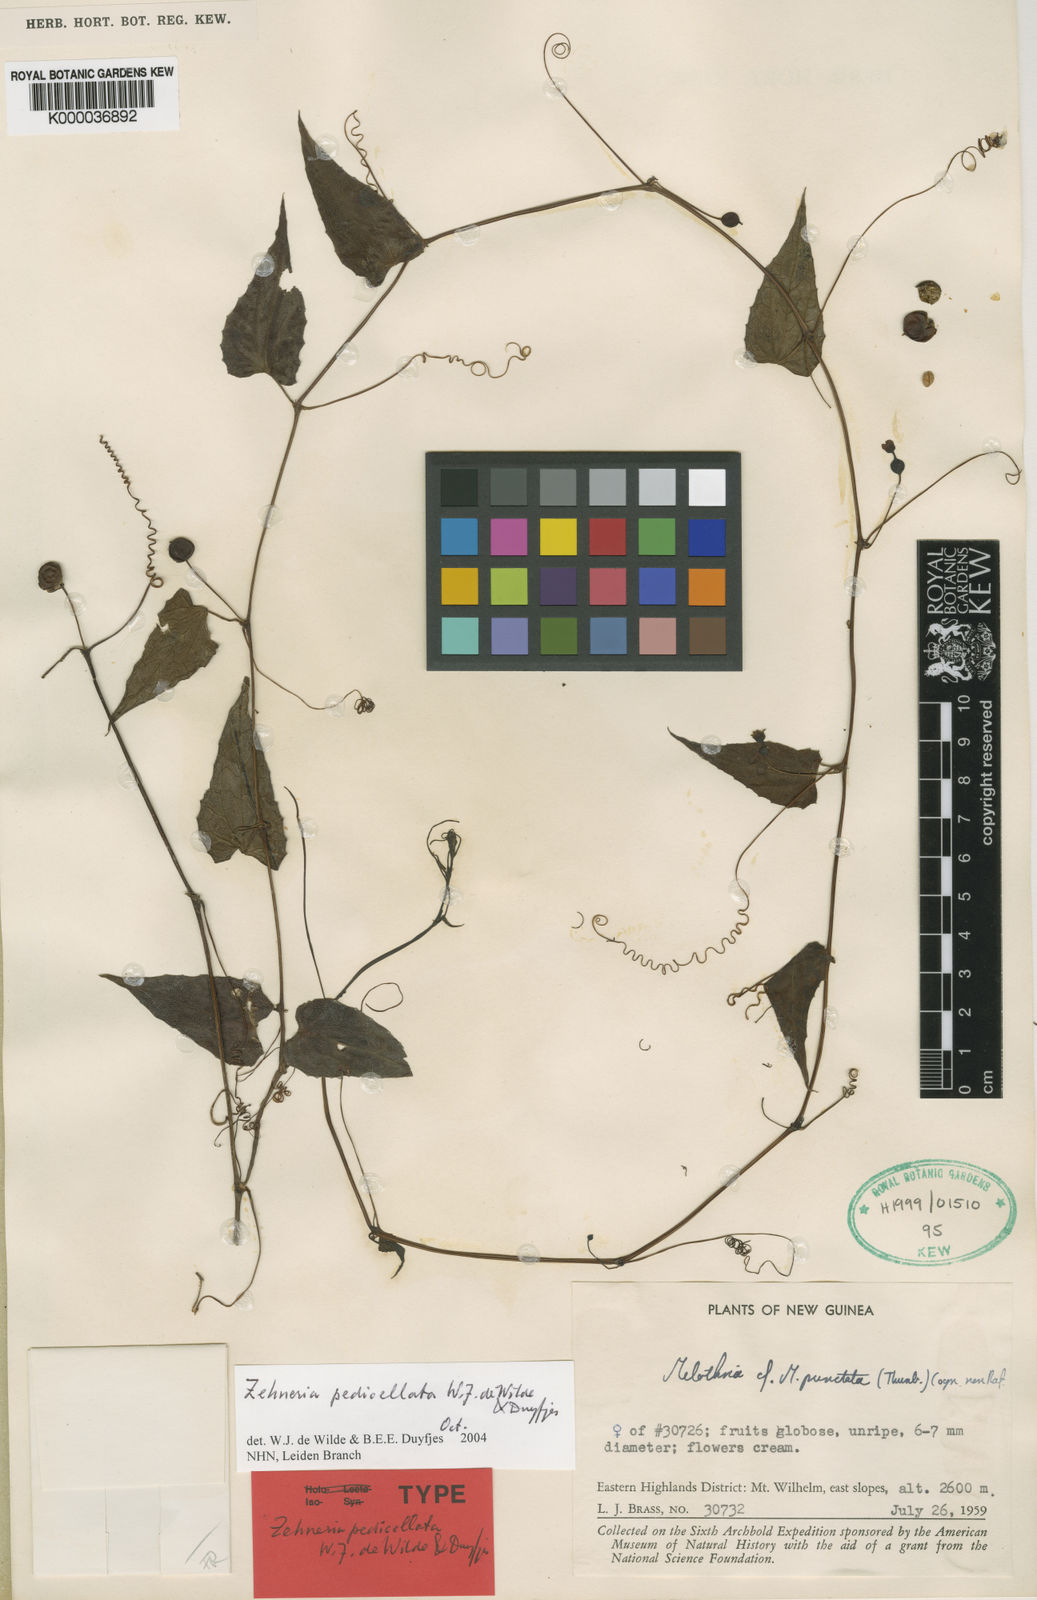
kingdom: Plantae
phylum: Tracheophyta
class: Magnoliopsida
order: Cucurbitales
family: Cucurbitaceae
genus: Zehneria
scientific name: Zehneria pedicellata
